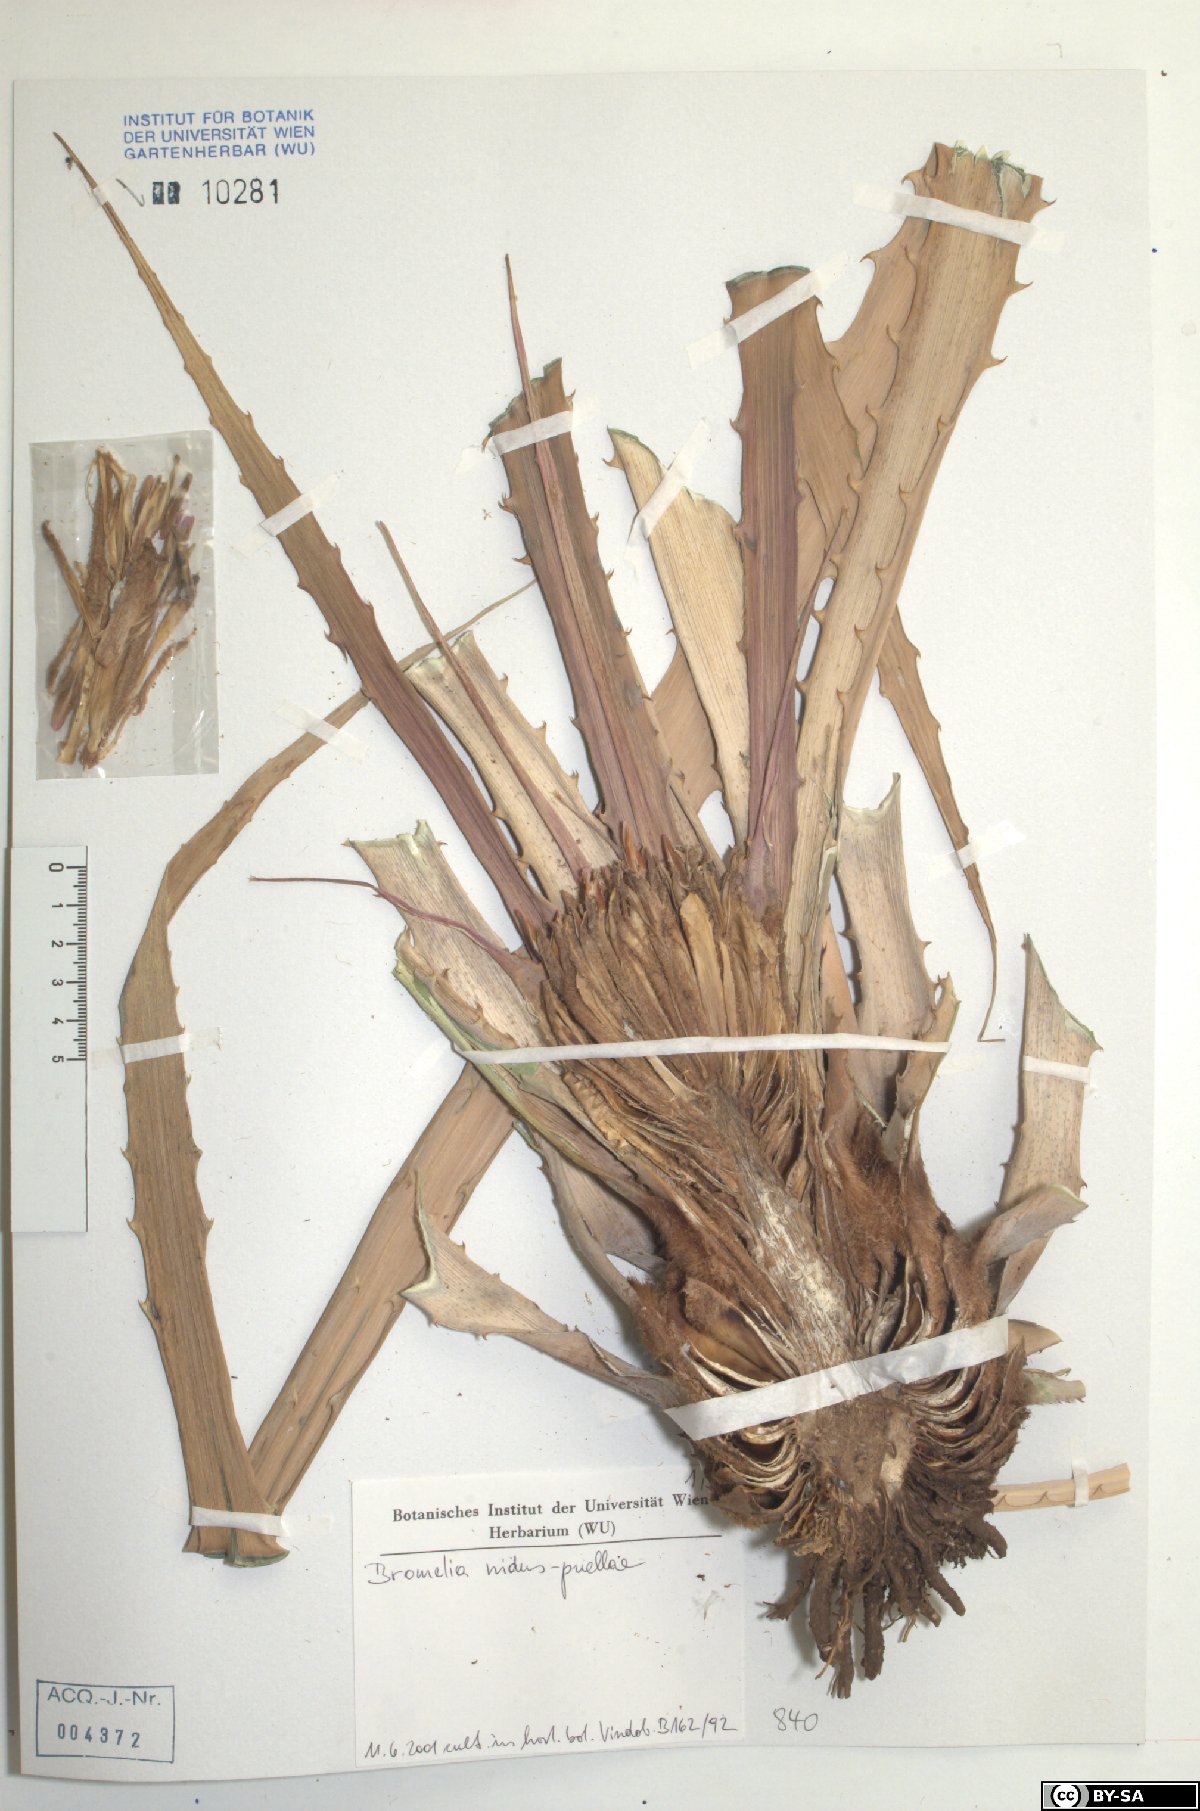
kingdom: Plantae
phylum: Tracheophyta
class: Liliopsida
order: Poales
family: Bromeliaceae
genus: Bromelia
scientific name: Bromelia nidus-puellae
